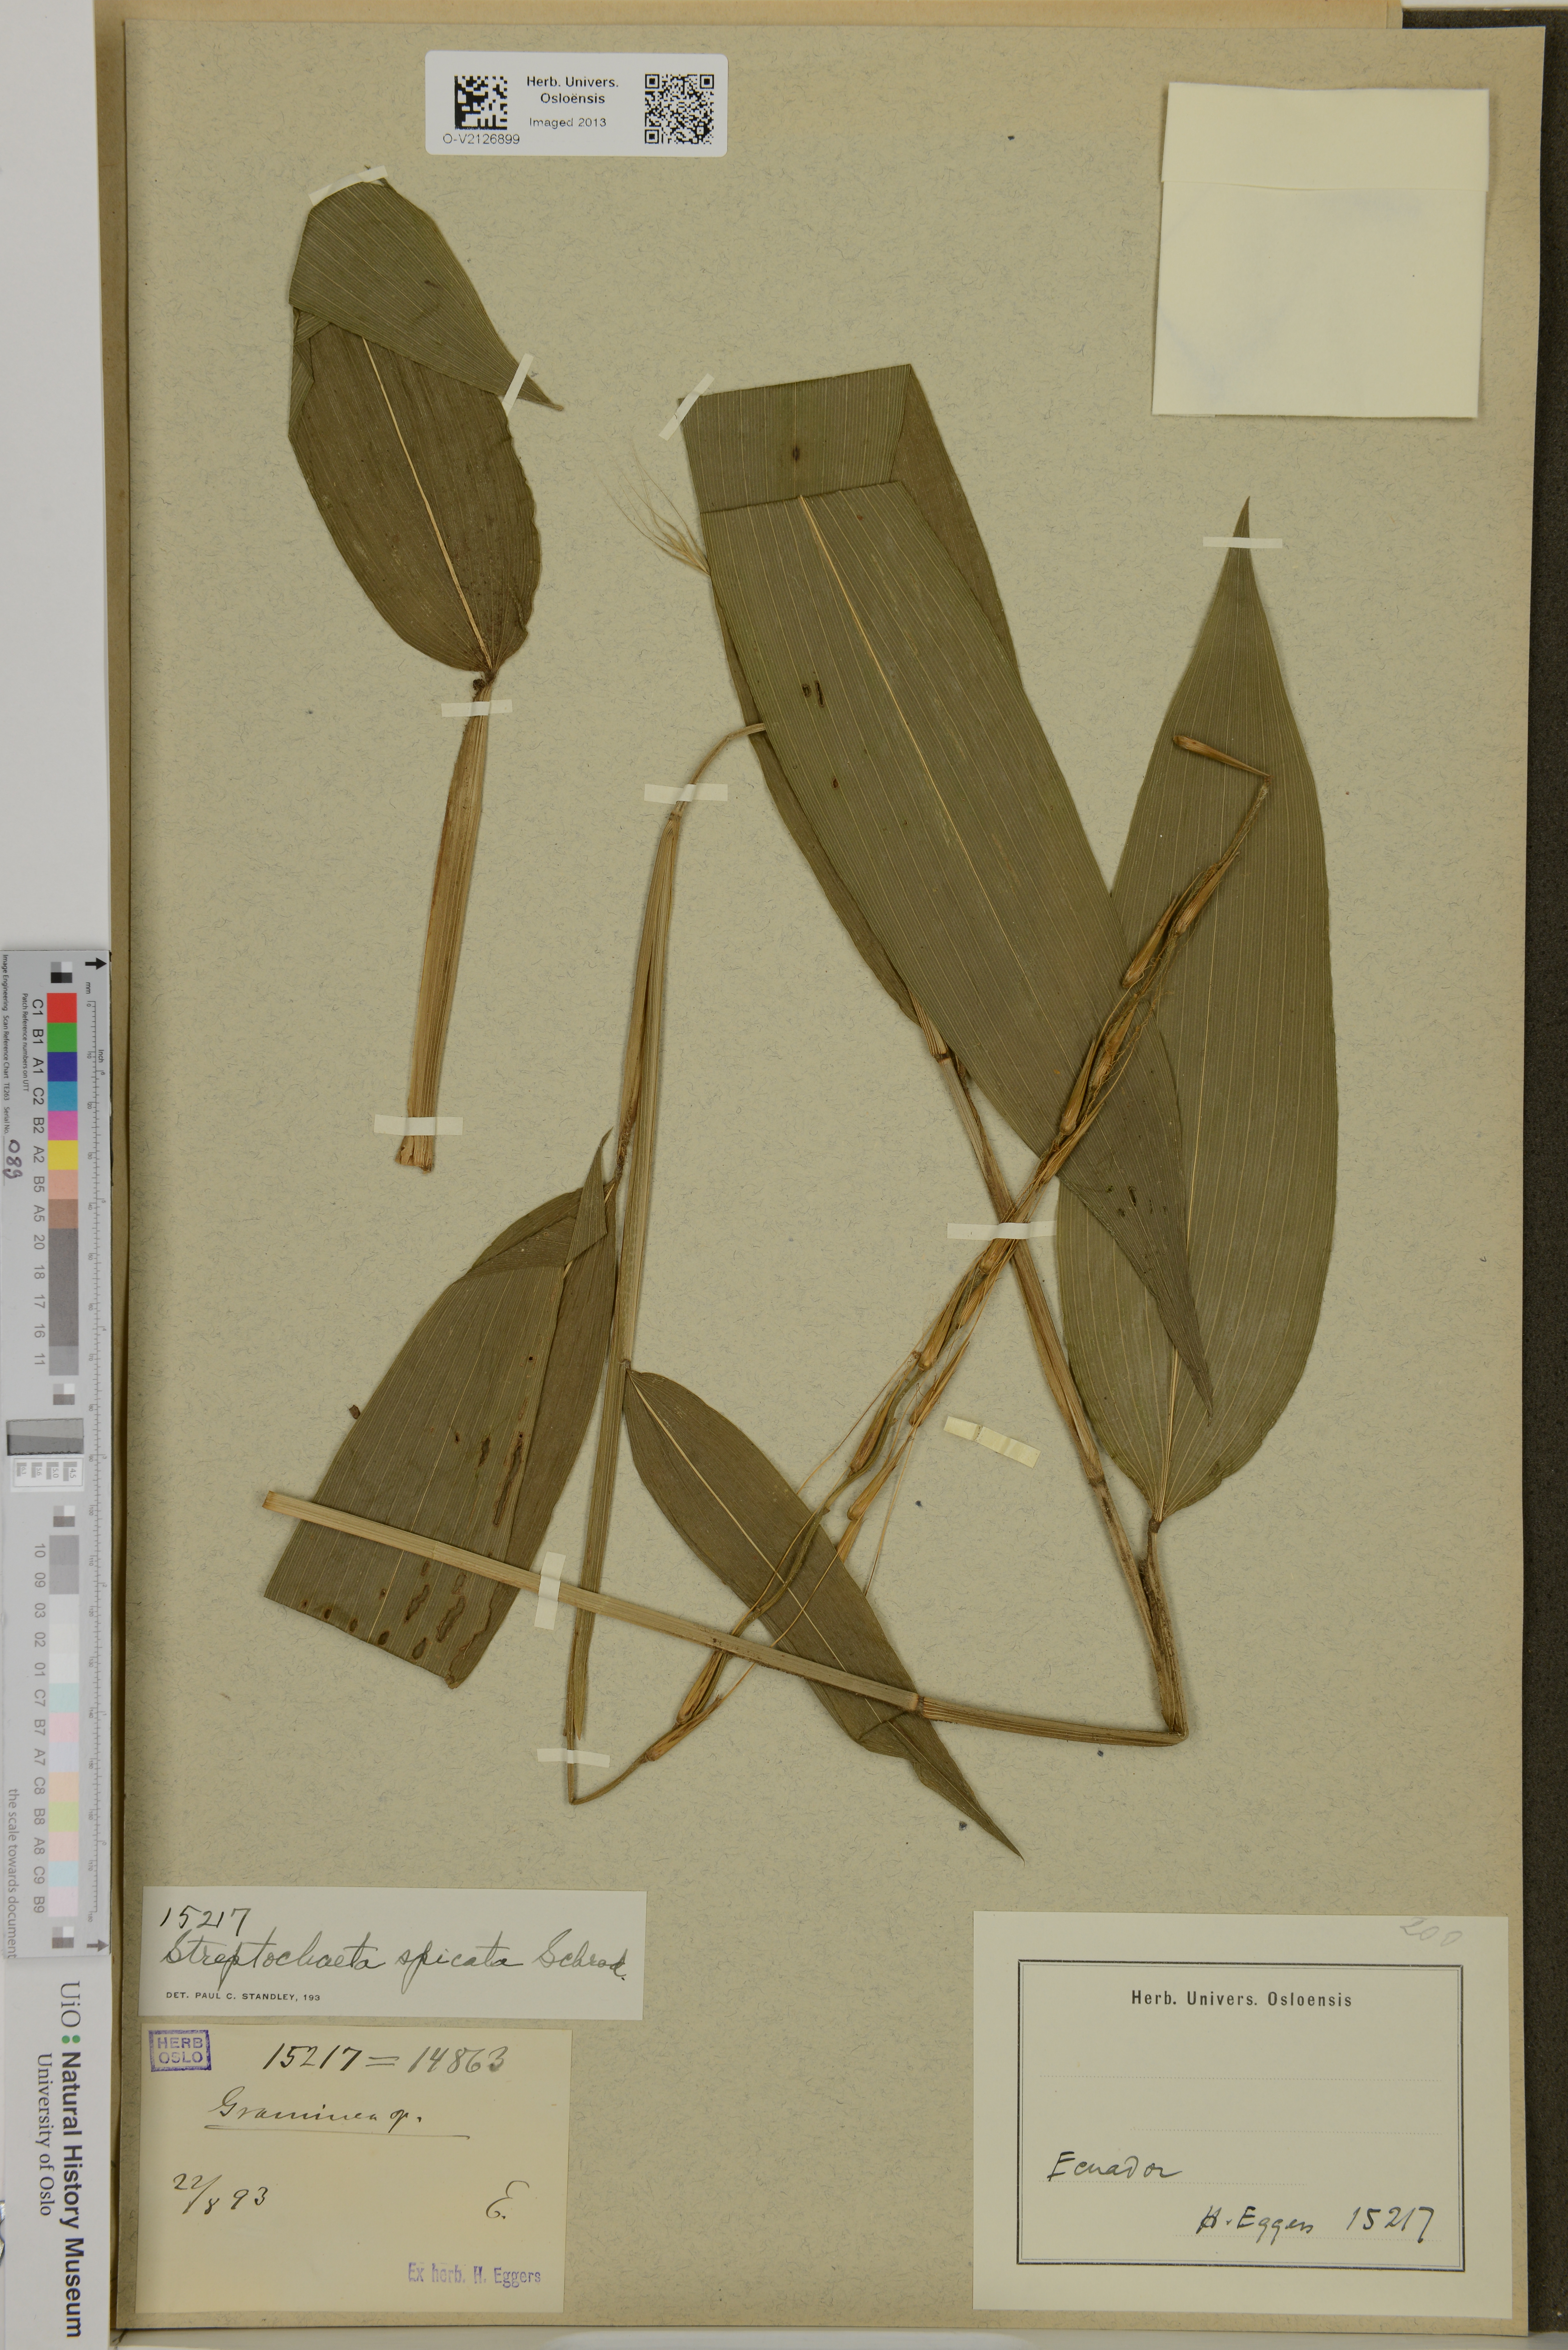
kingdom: Plantae
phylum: Tracheophyta
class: Liliopsida
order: Poales
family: Poaceae
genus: Streptochaeta
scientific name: Streptochaeta spicata
